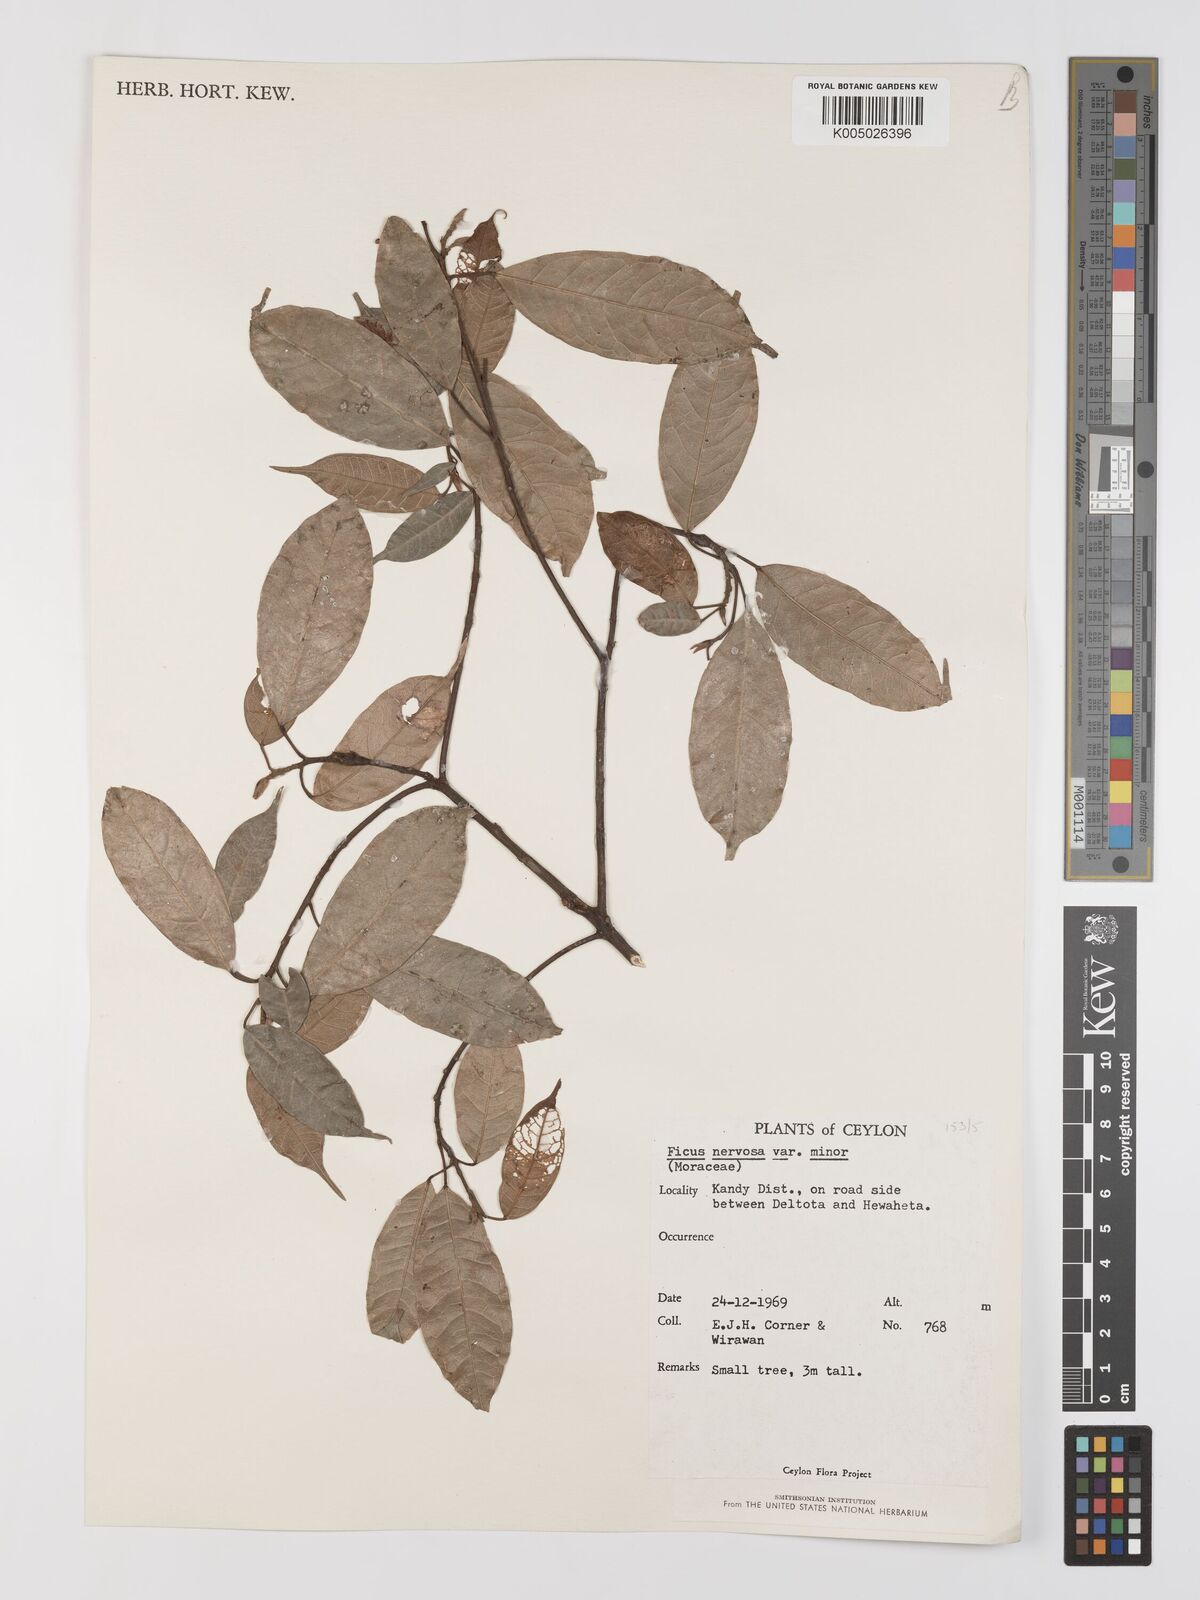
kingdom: Plantae
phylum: Tracheophyta
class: Magnoliopsida
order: Rosales
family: Moraceae
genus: Ficus
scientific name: Ficus
